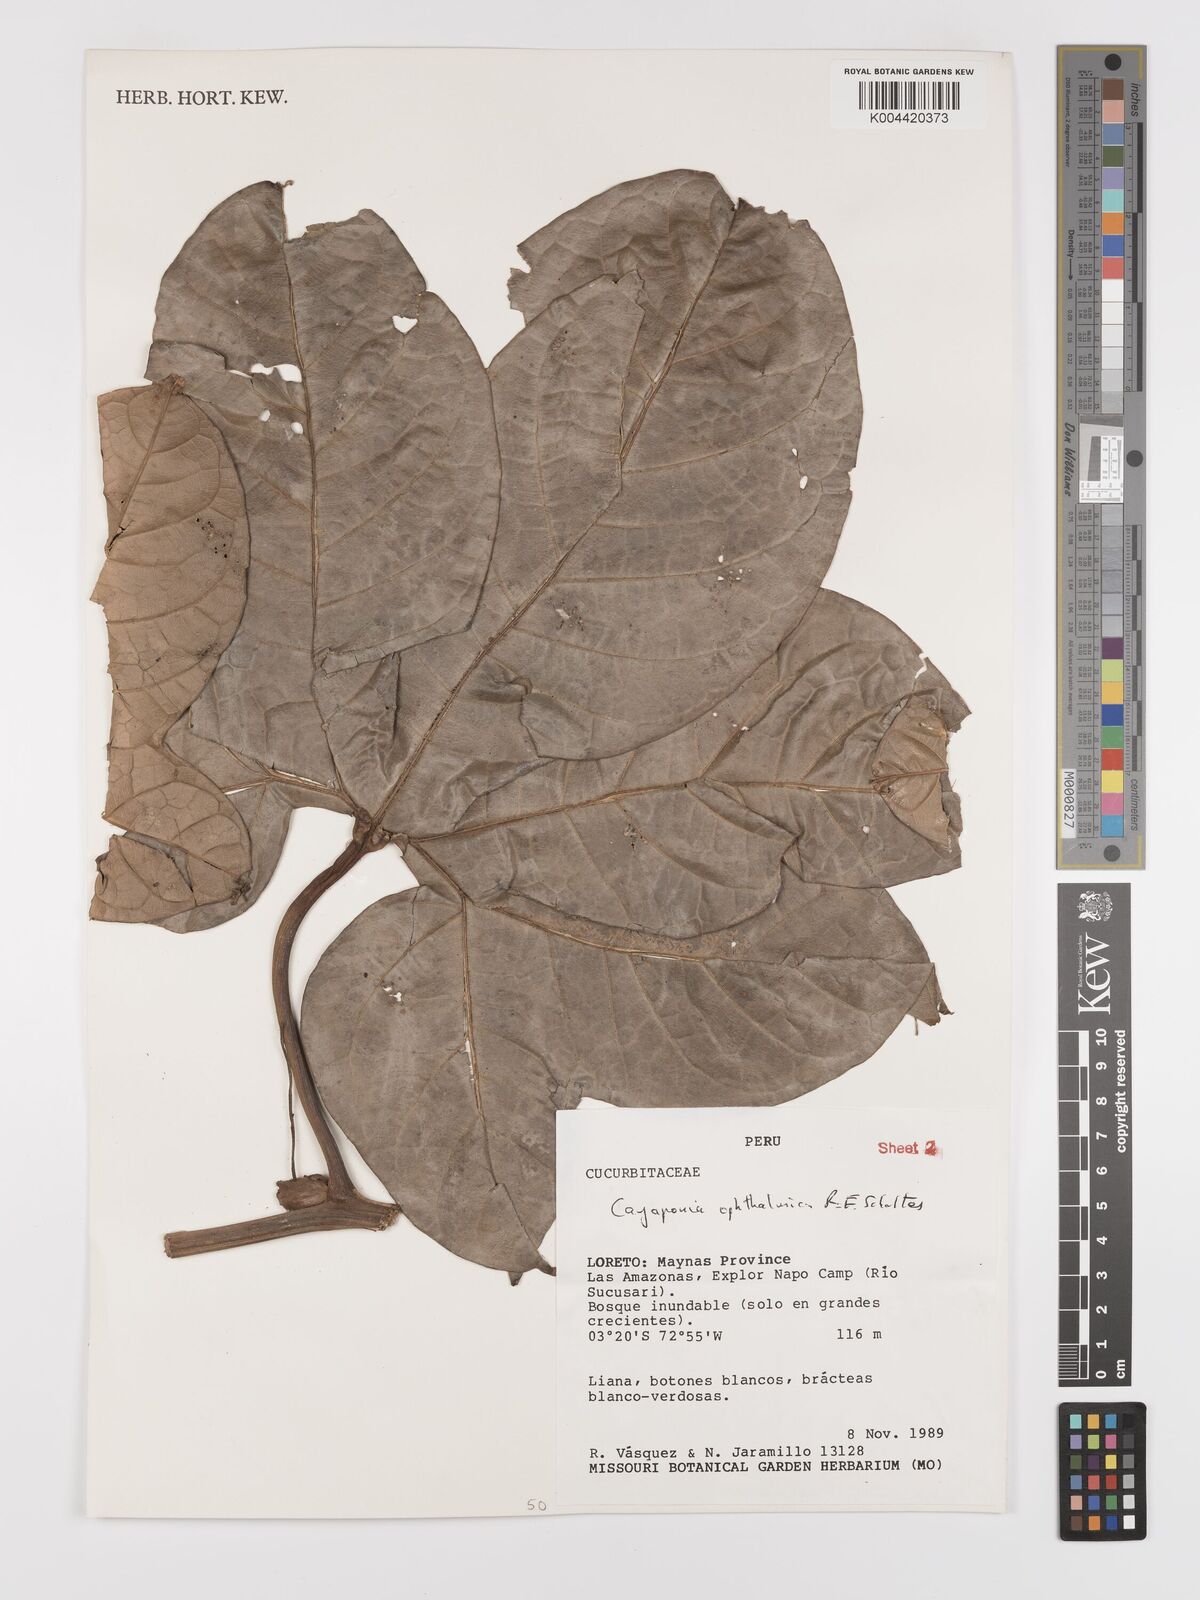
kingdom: Plantae
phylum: Tracheophyta
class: Magnoliopsida
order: Cucurbitales
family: Cucurbitaceae
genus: Cayaponia
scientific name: Cayaponia ophthalmica
